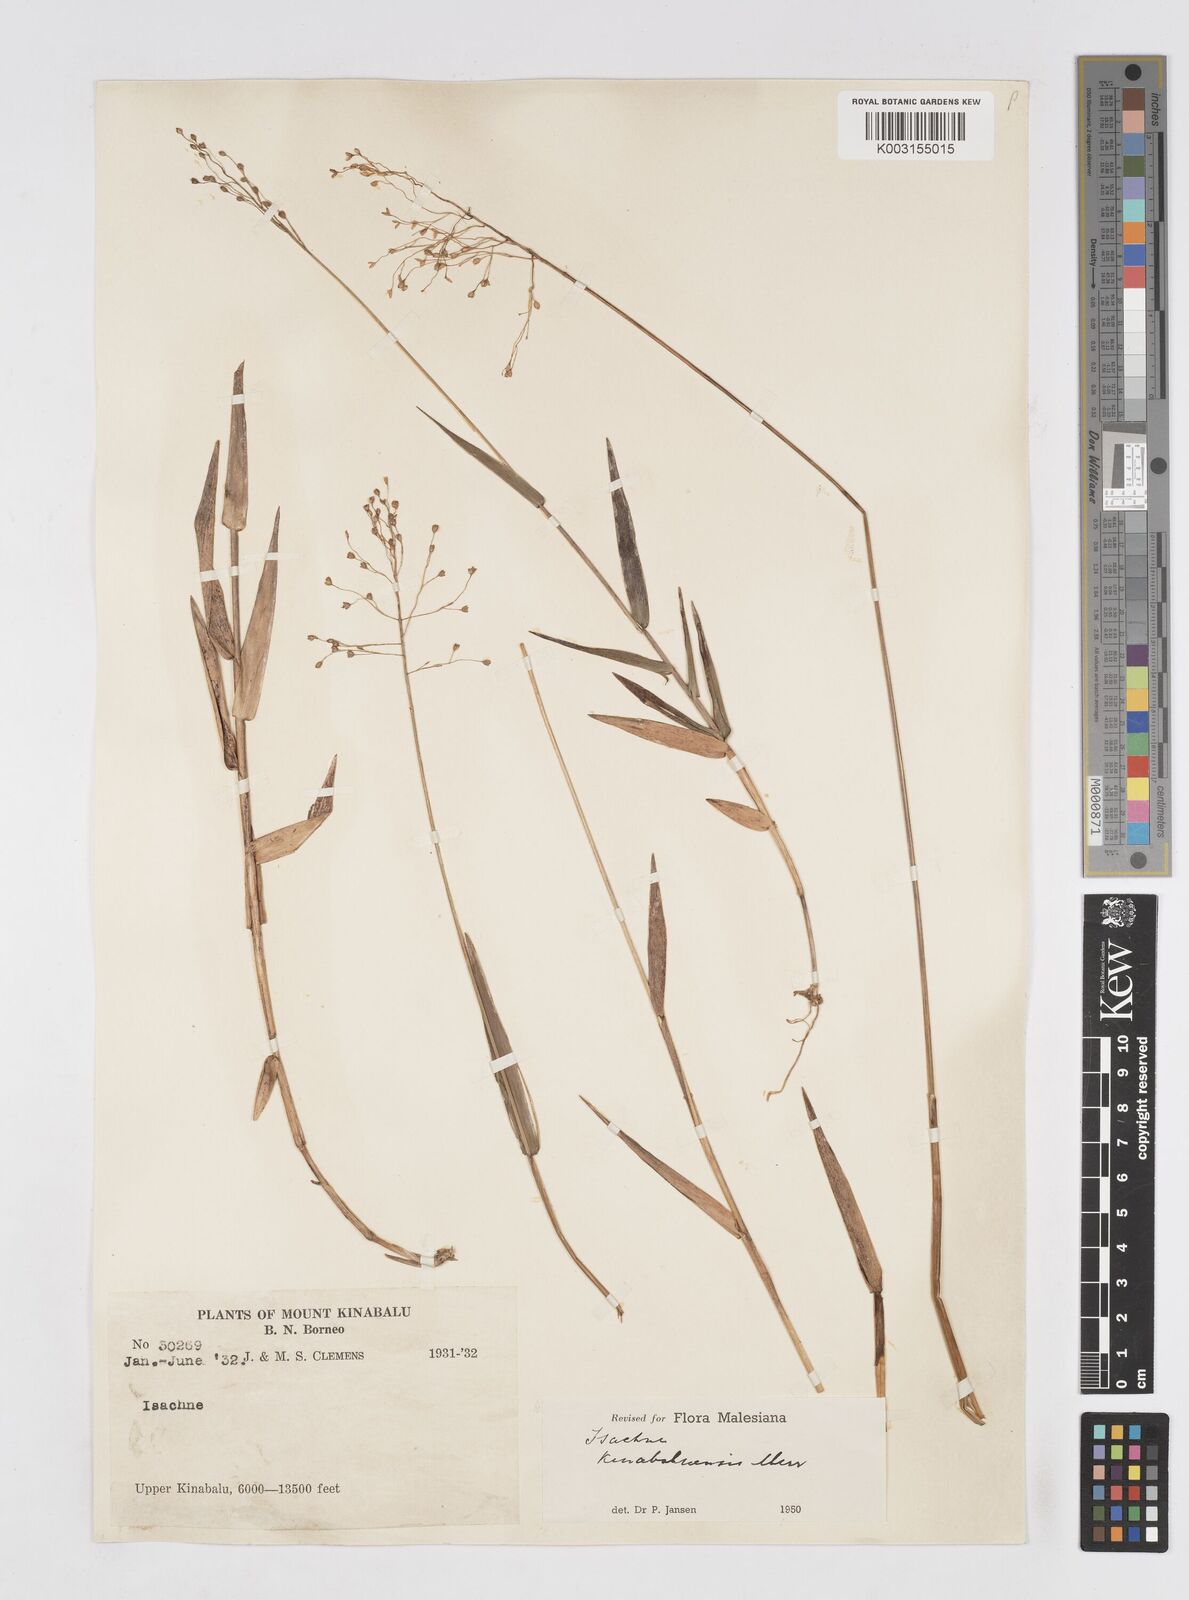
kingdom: Plantae
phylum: Tracheophyta
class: Liliopsida
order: Poales
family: Poaceae
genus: Isachne
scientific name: Isachne kinabaluensis
